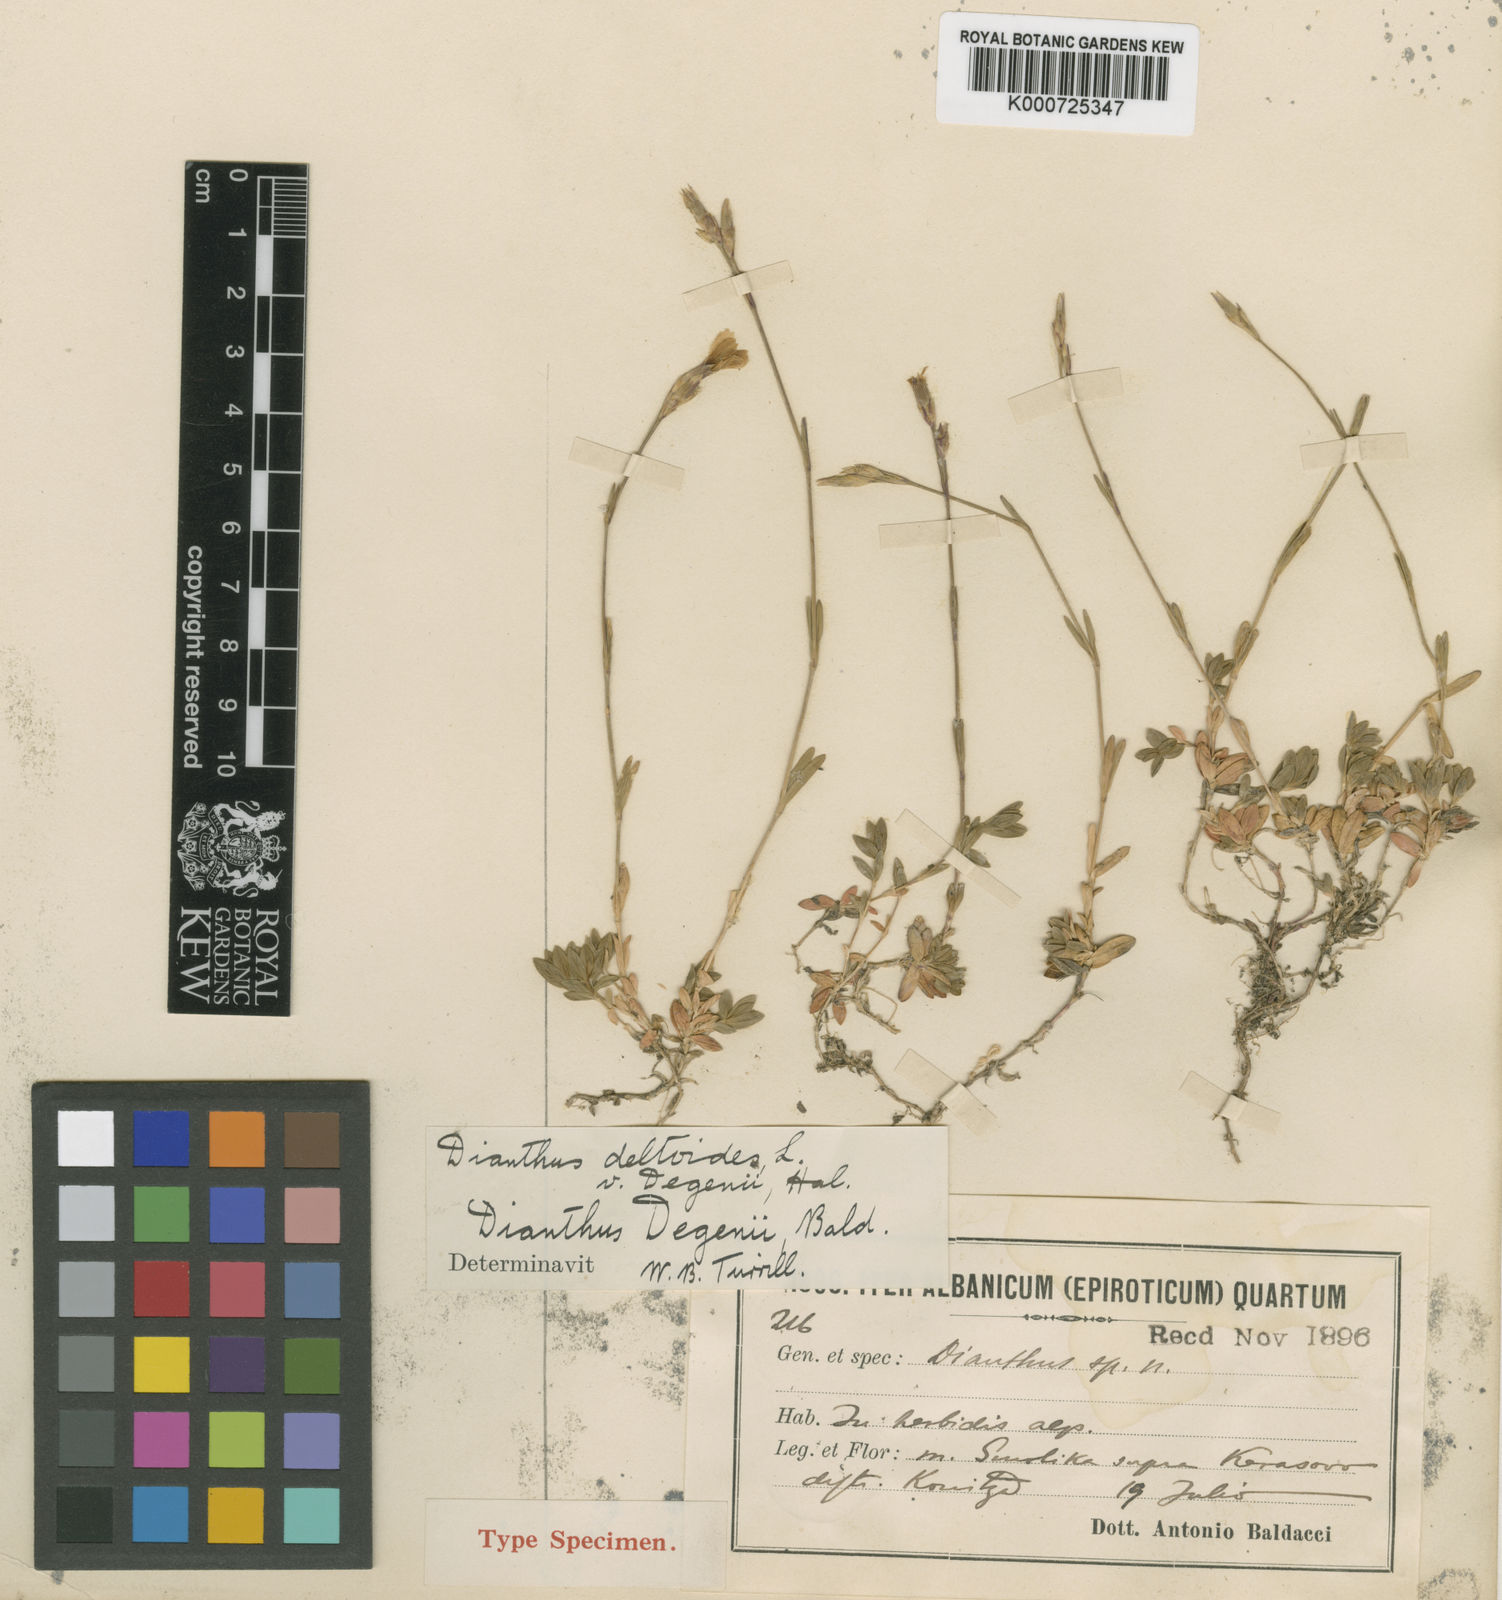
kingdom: Plantae
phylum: Tracheophyta
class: Magnoliopsida
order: Caryophyllales
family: Caryophyllaceae
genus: Dianthus
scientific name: Dianthus deltoides
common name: Maiden pink
